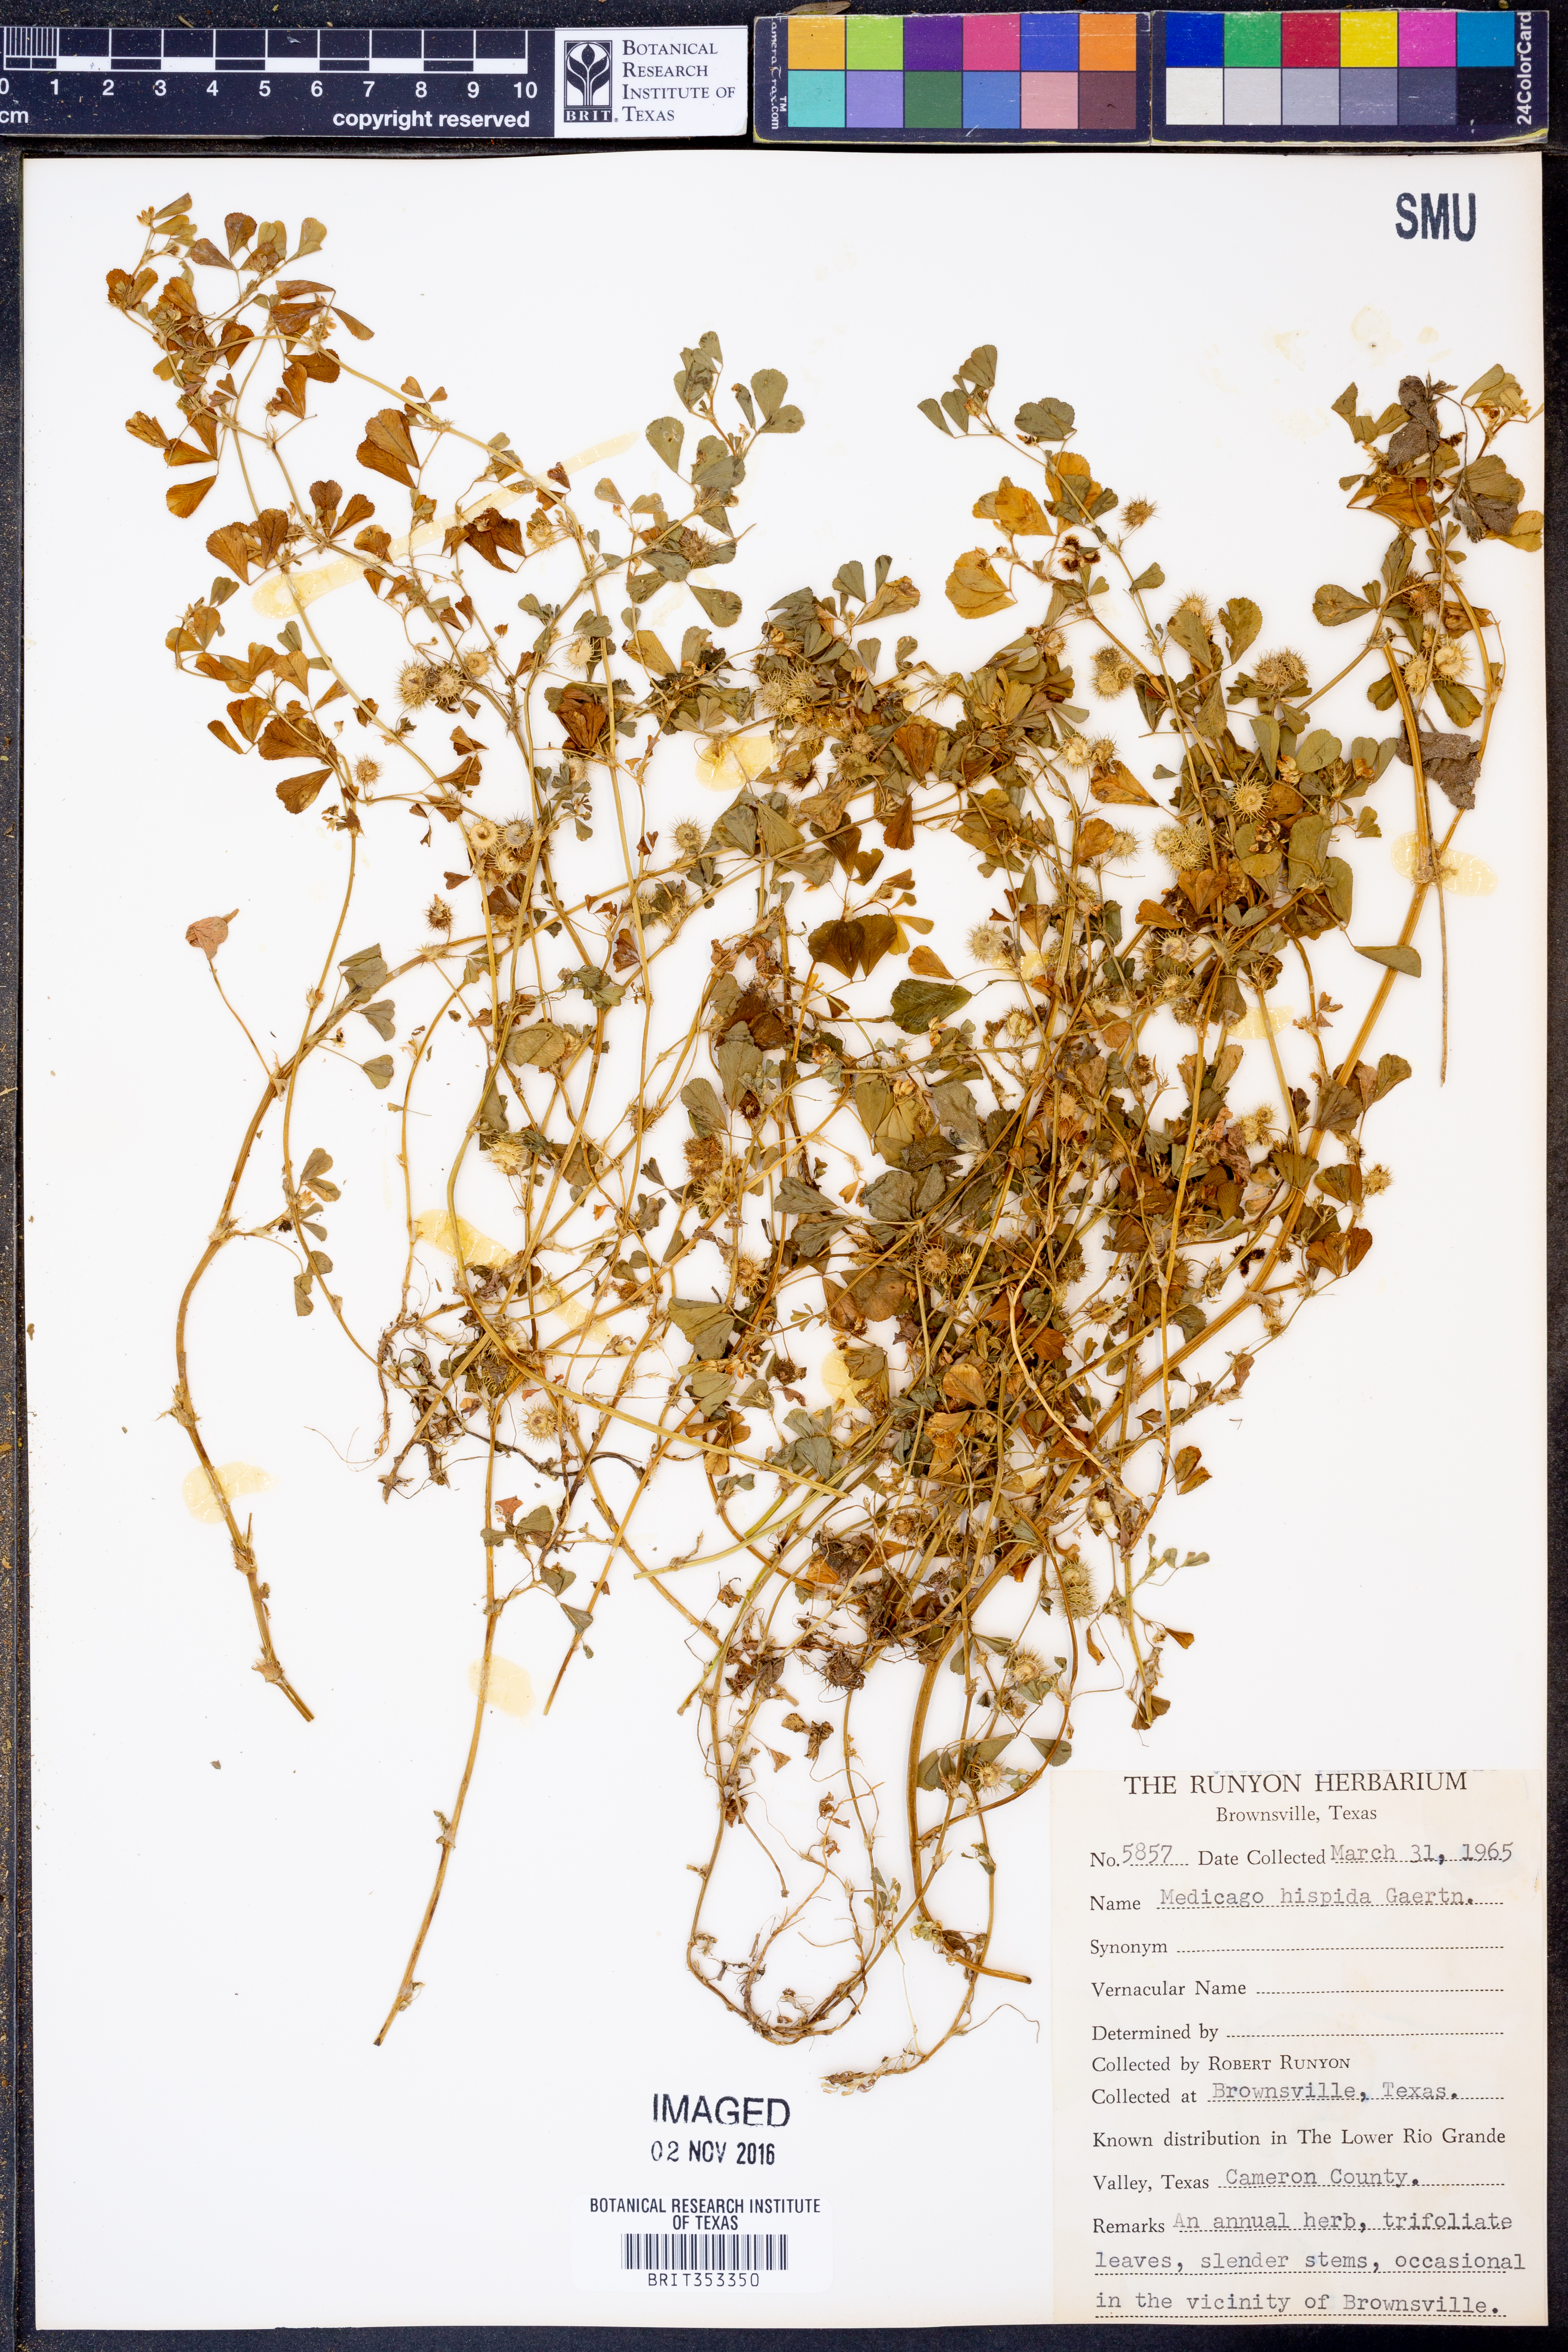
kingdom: Plantae
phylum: Tracheophyta
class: Magnoliopsida
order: Fabales
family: Fabaceae
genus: Medicago
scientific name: Medicago polymorpha
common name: Burclover
